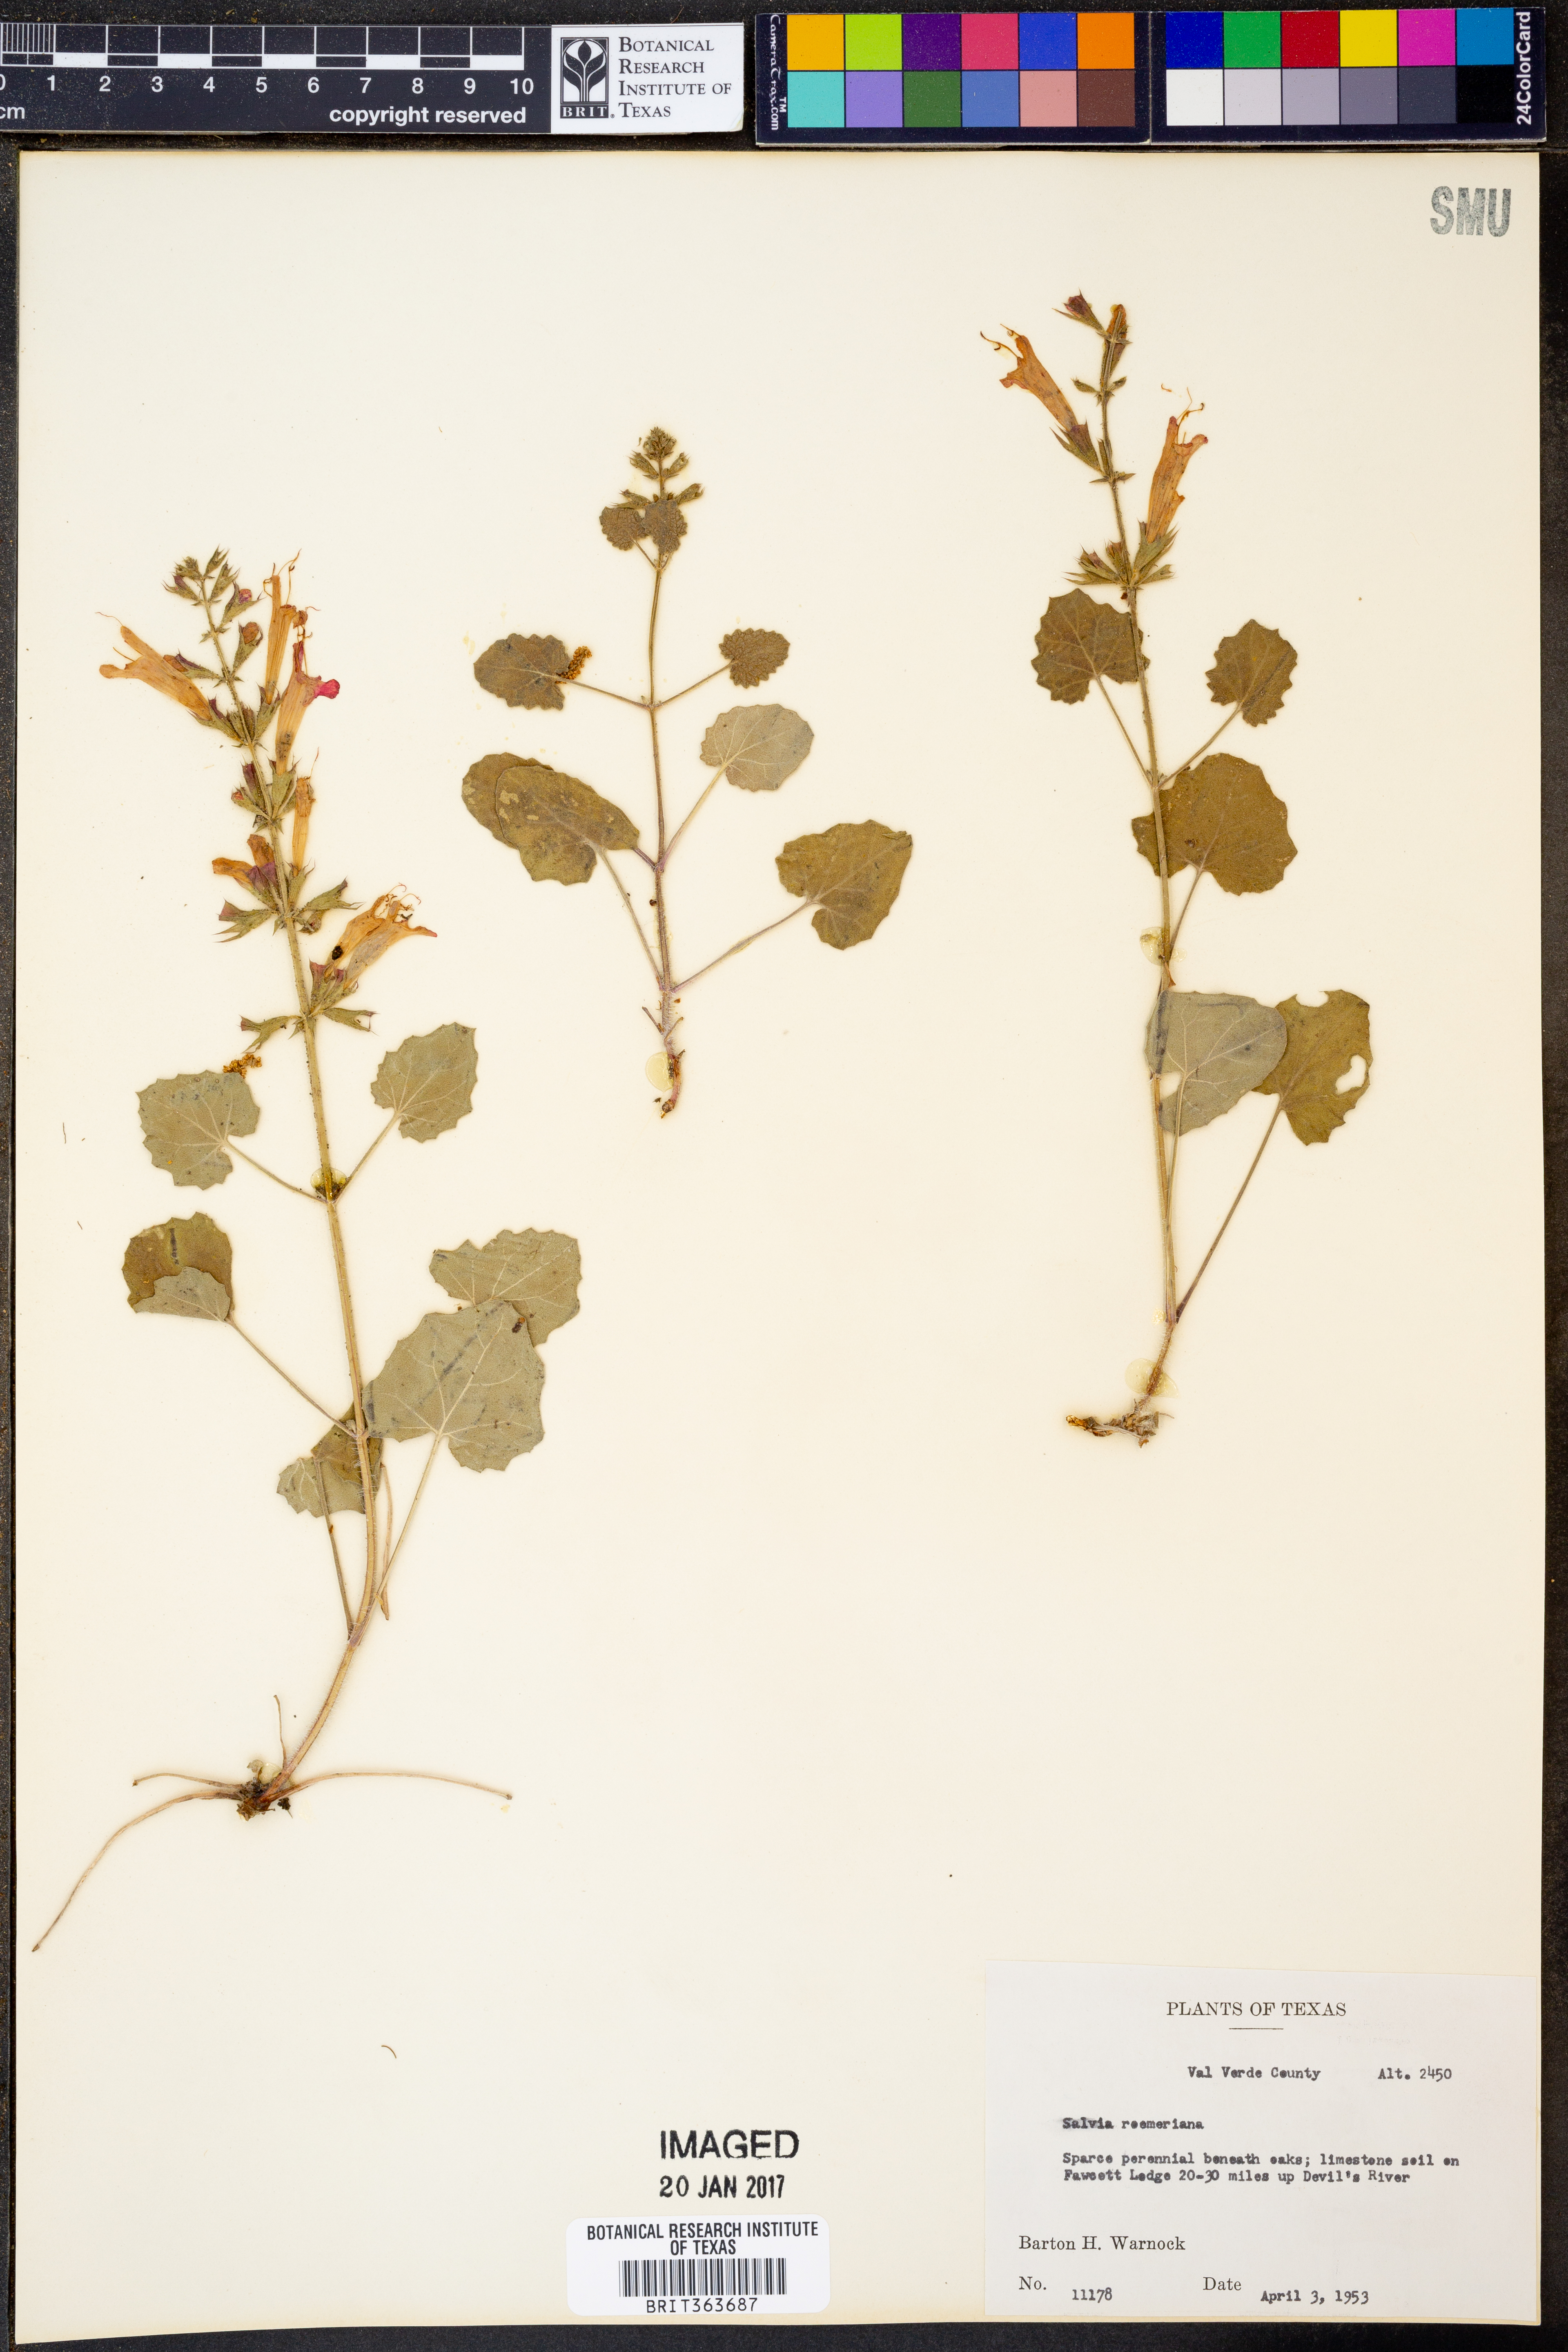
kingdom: Plantae
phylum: Tracheophyta
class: Magnoliopsida
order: Lamiales
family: Lamiaceae
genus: Salvia
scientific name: Salvia roemeriana
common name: Cedar sage
